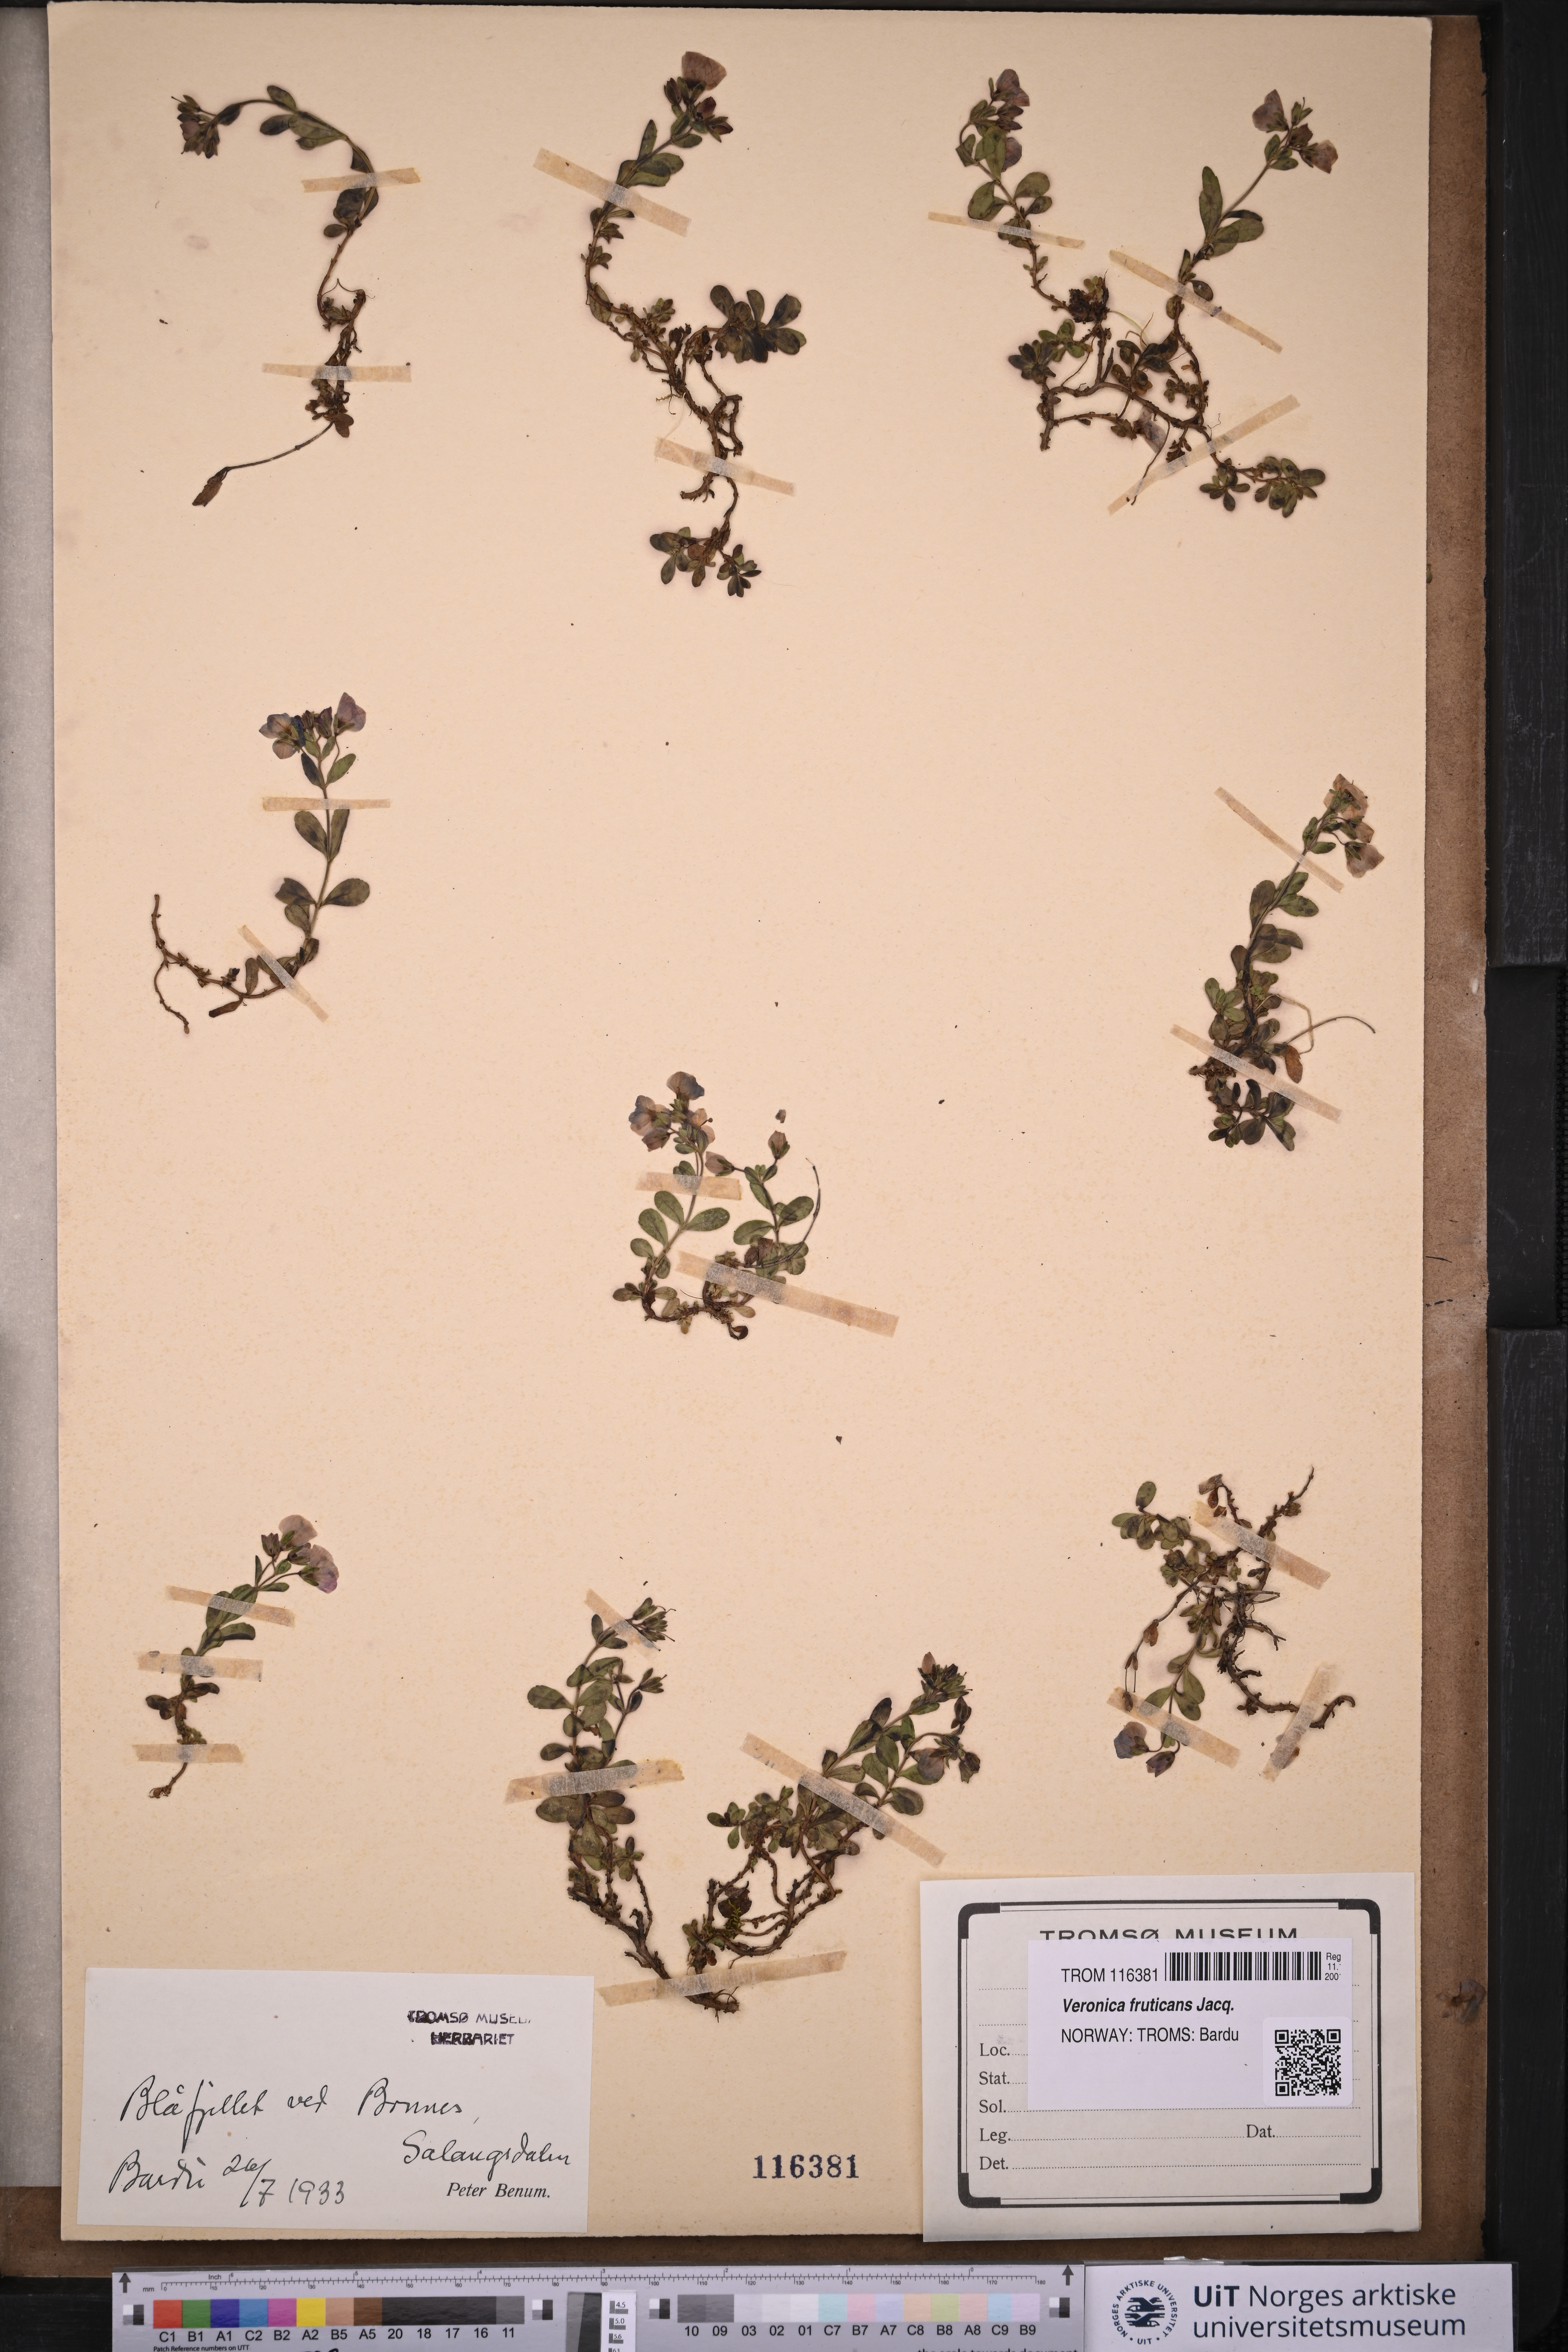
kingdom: Plantae
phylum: Tracheophyta
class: Magnoliopsida
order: Lamiales
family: Plantaginaceae
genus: Veronica
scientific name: Veronica fruticans
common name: Rock speedwell
